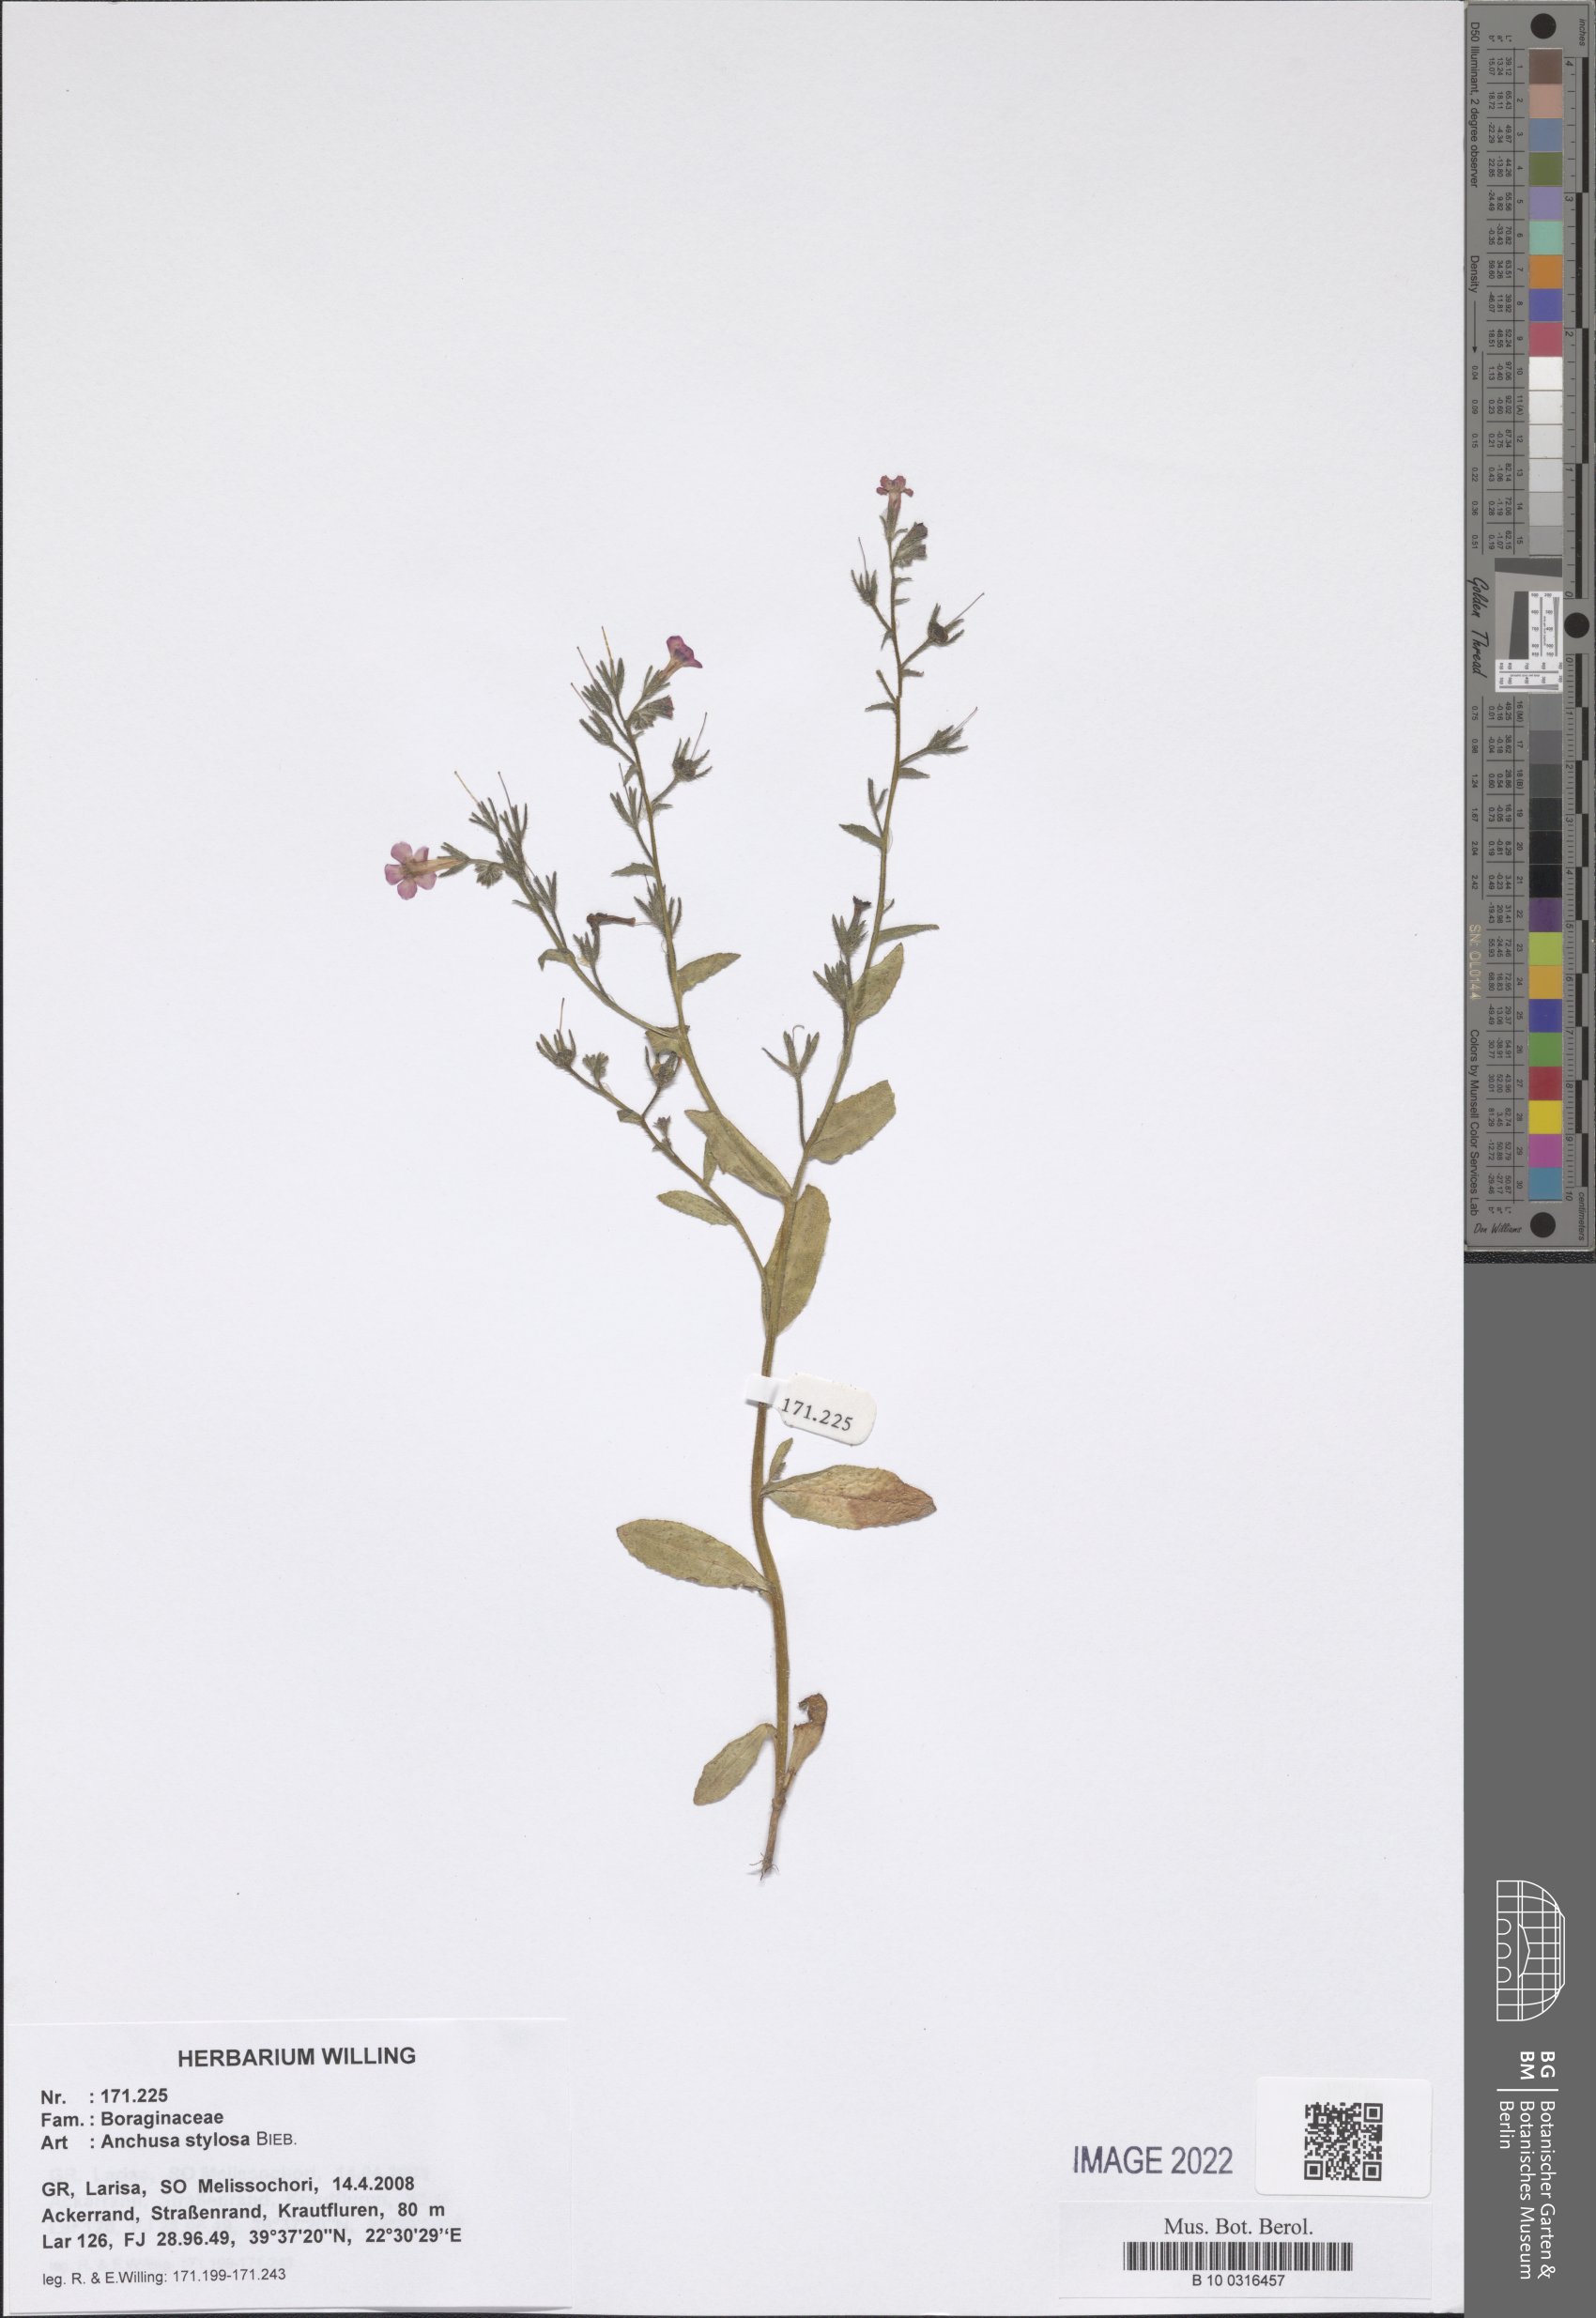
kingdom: Plantae
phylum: Tracheophyta
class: Magnoliopsida
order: Boraginales
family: Boraginaceae
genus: Anchusa
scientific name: Anchusa stylosa
